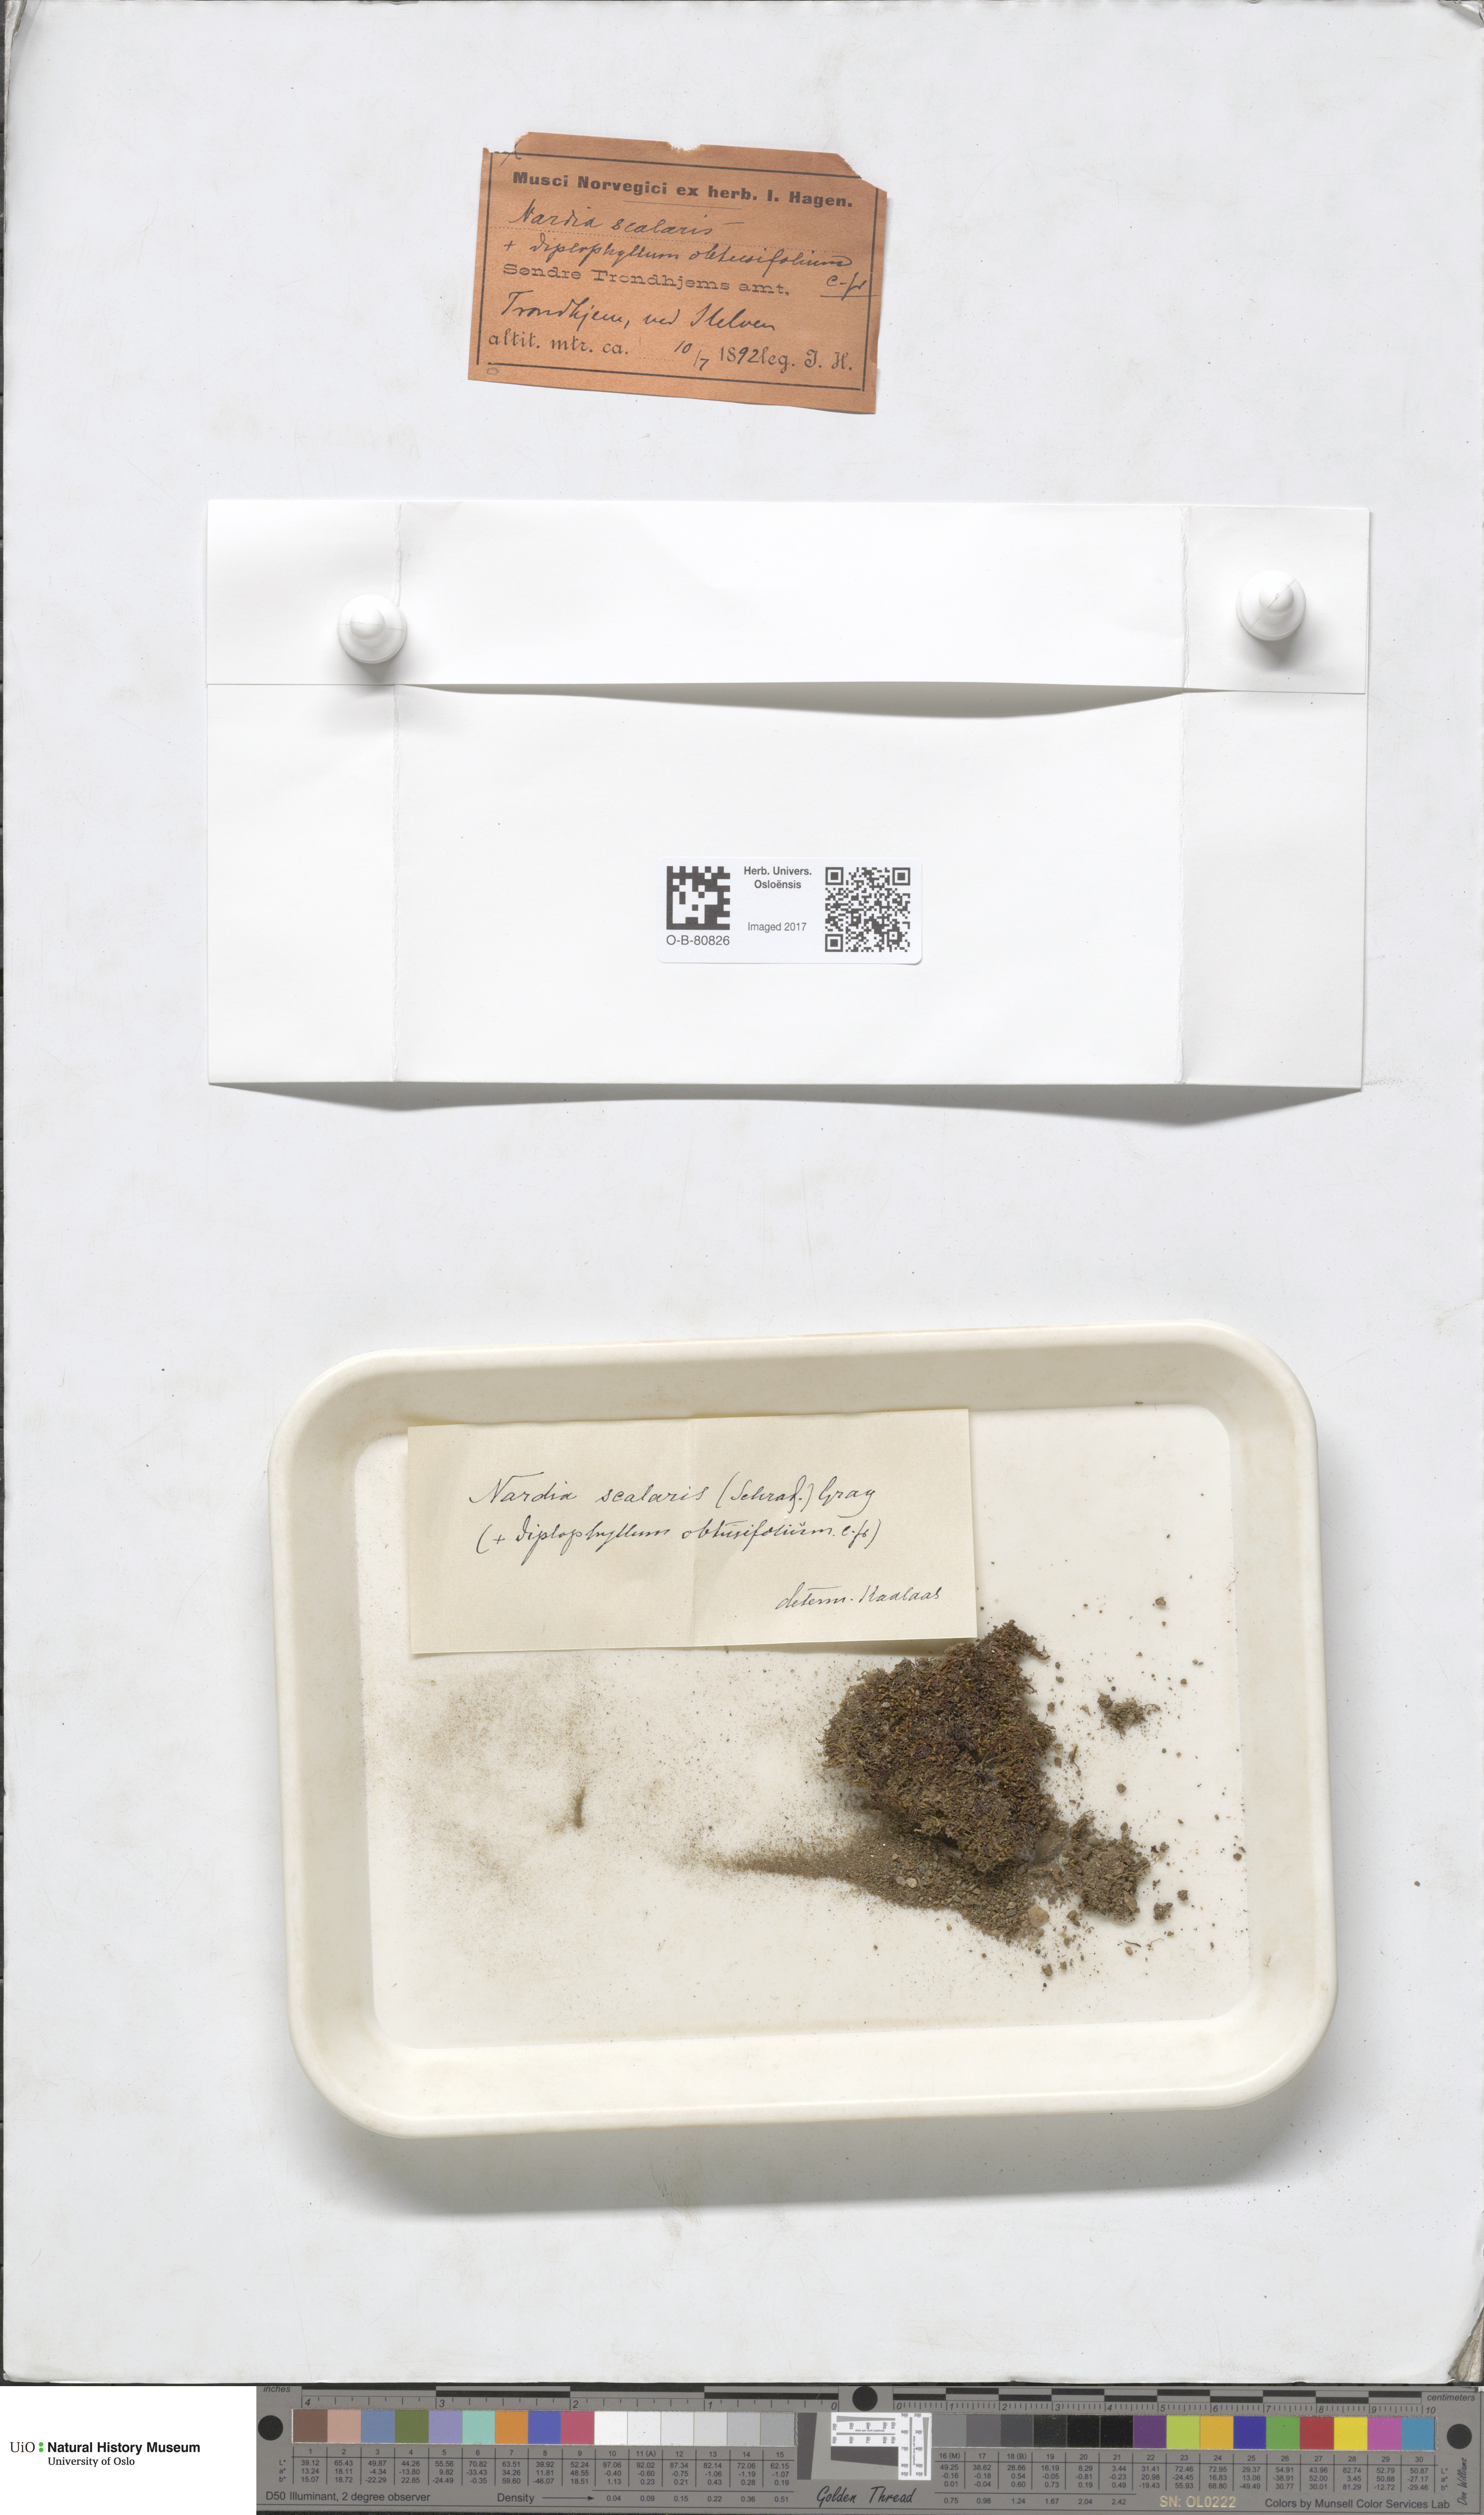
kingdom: Plantae
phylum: Marchantiophyta
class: Jungermanniopsida
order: Jungermanniales
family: Gymnomitriaceae
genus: Nardia
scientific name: Nardia scalaris
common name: Ladder flapwort
